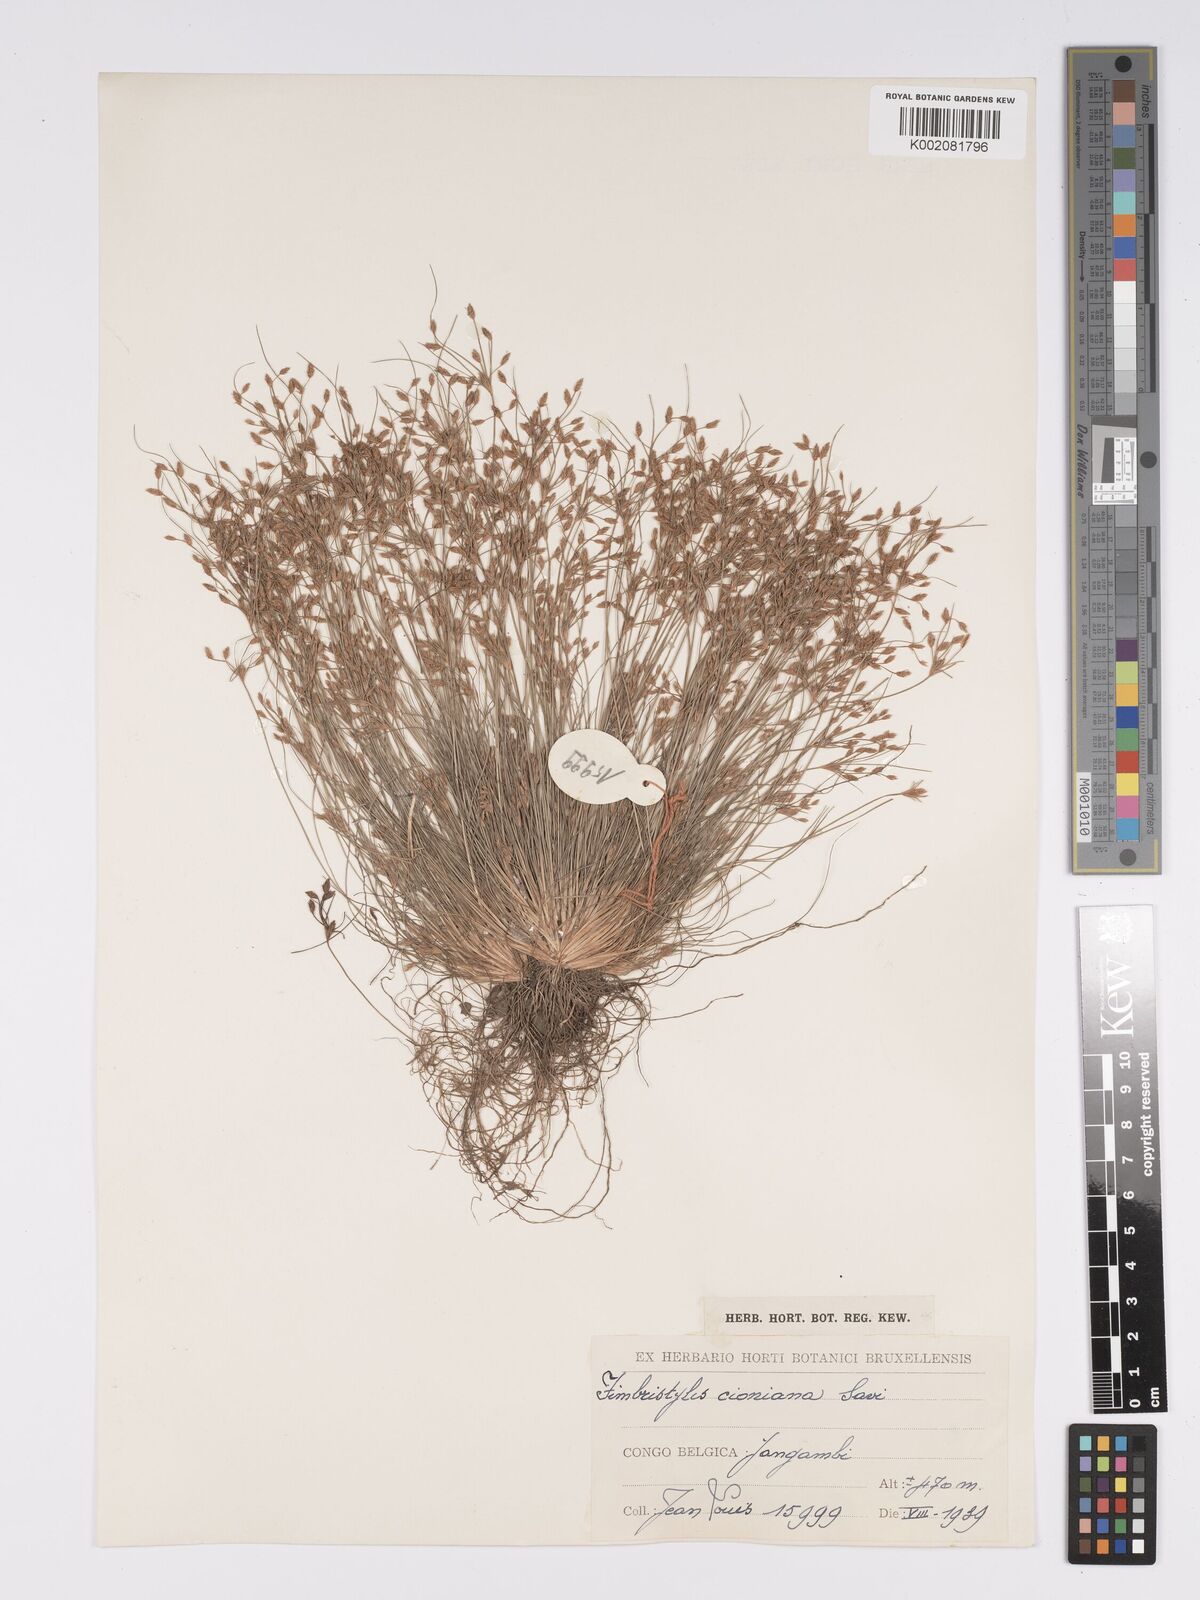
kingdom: Plantae
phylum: Tracheophyta
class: Liliopsida
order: Poales
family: Cyperaceae
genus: Bulbostylis
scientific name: Bulbostylis cioniana
